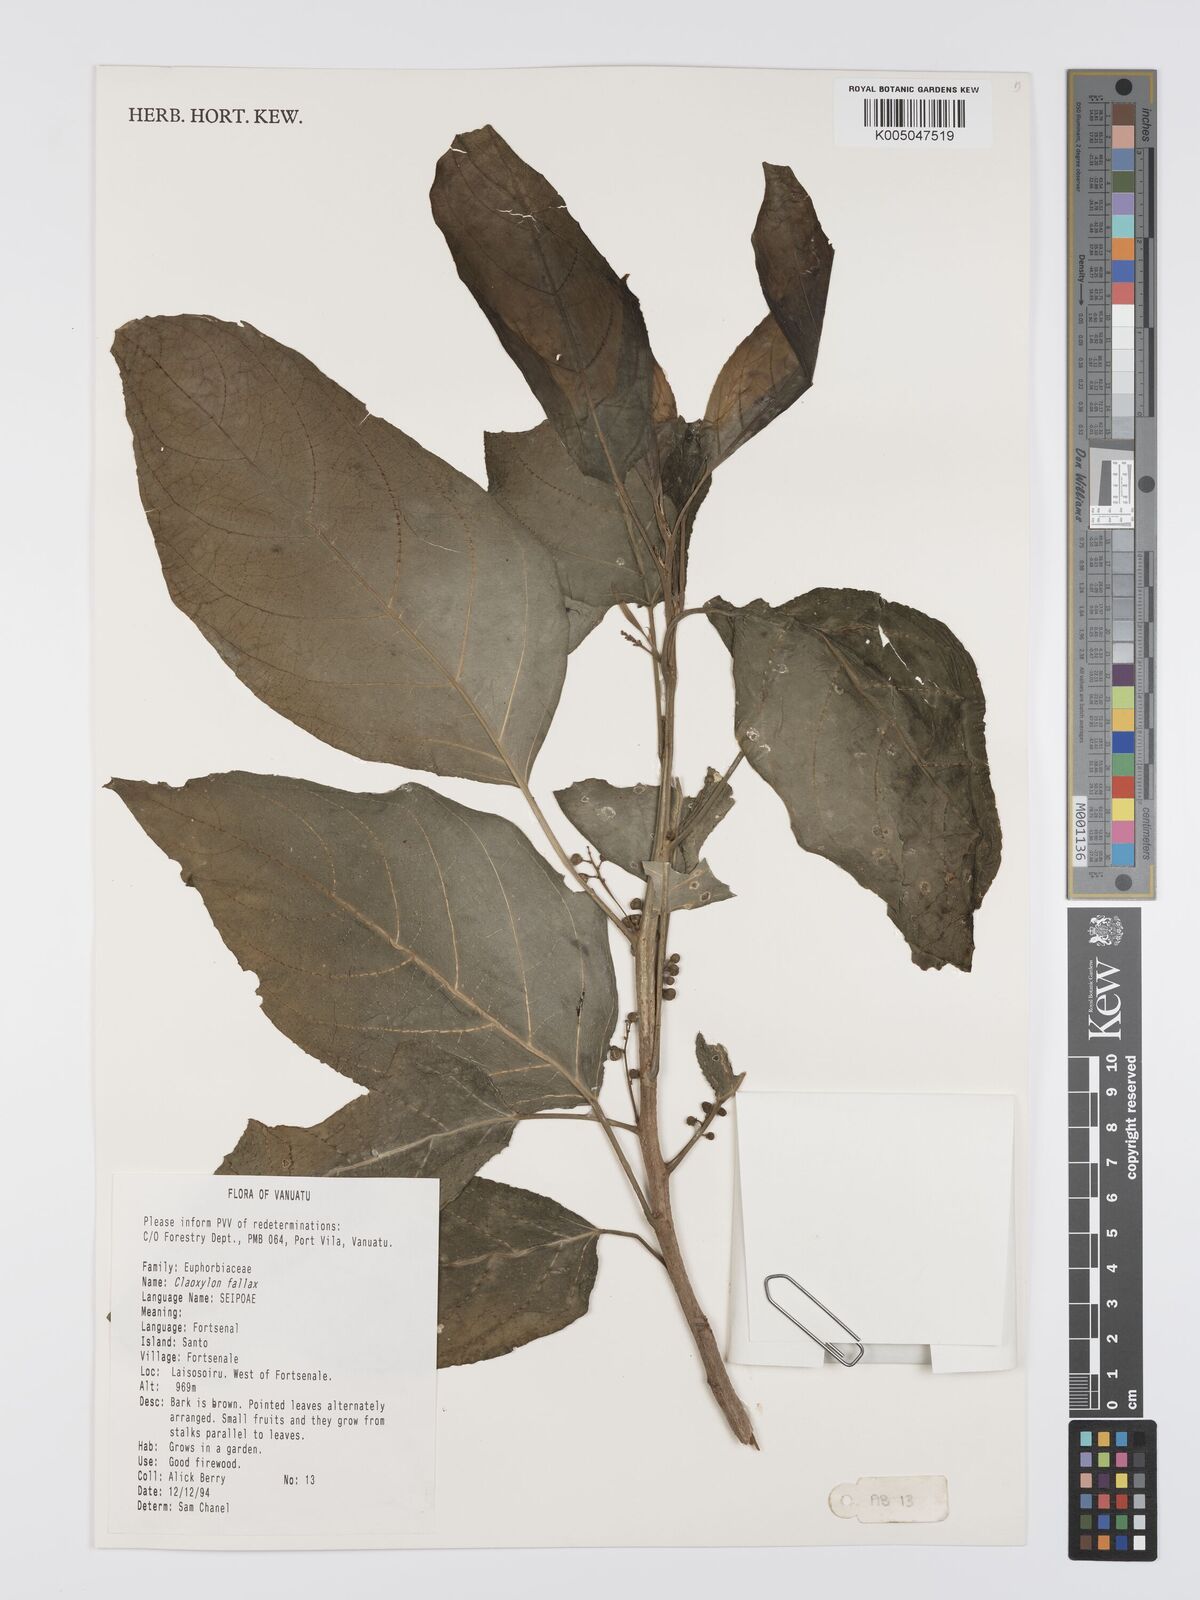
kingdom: Plantae
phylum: Tracheophyta
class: Magnoliopsida
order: Malpighiales
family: Euphorbiaceae
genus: Claoxylon
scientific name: Claoxylon fallax
